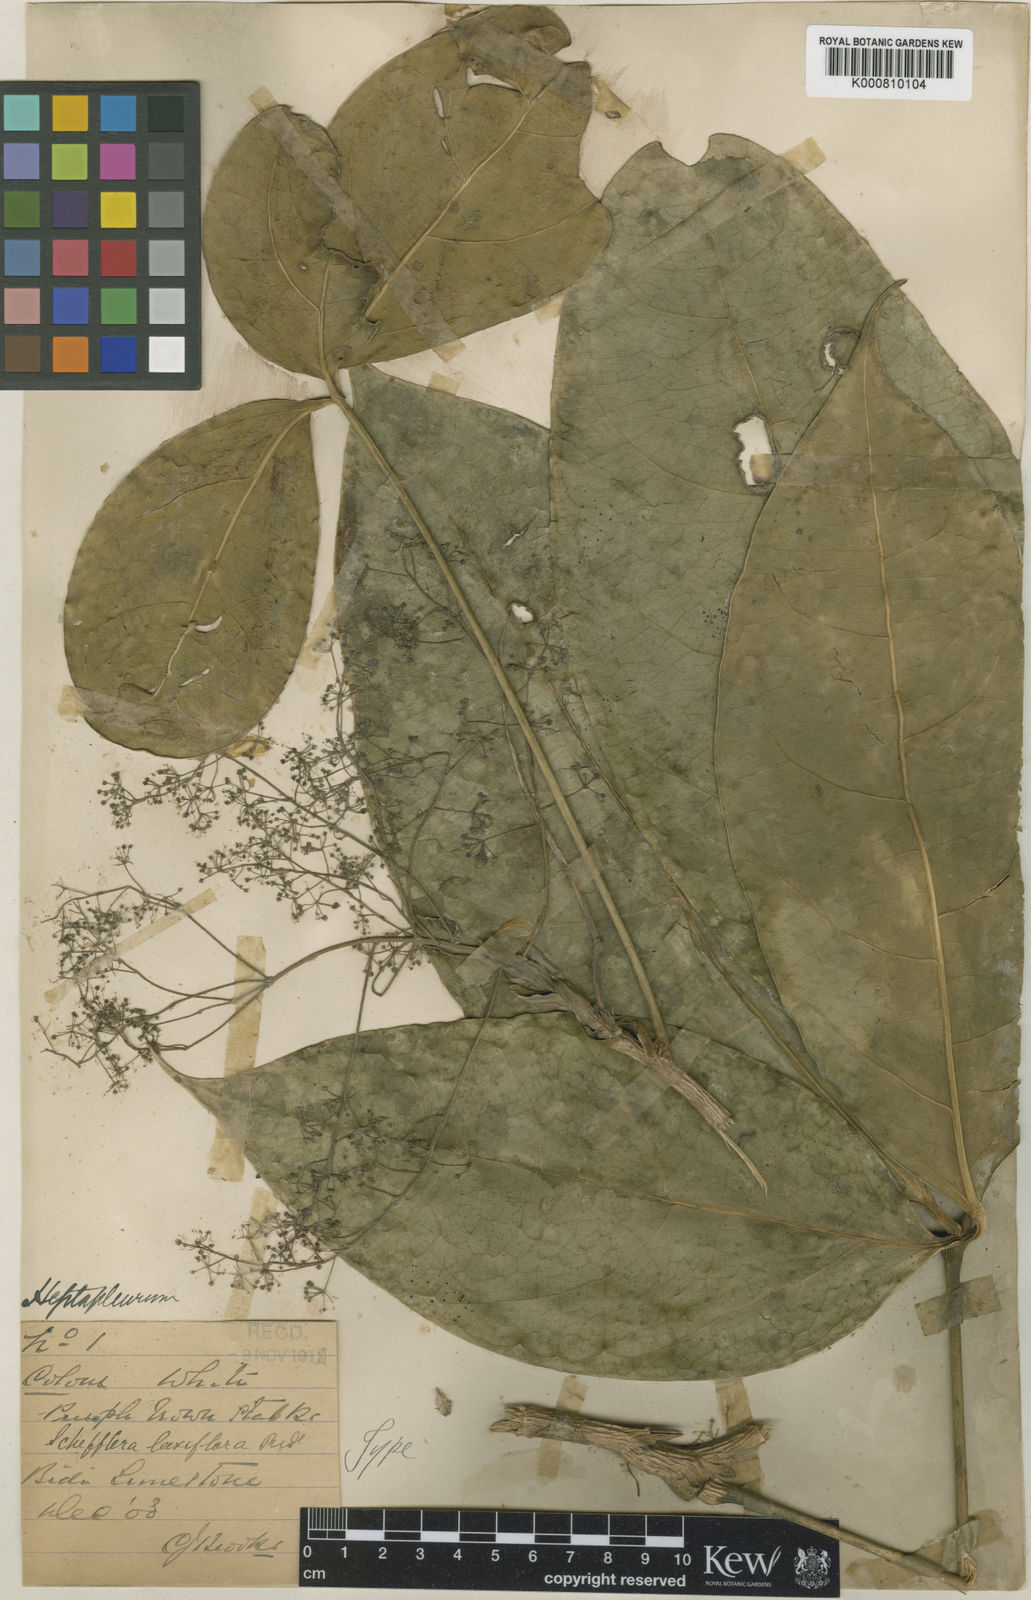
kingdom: Plantae
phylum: Tracheophyta
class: Magnoliopsida
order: Apiales
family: Araliaceae
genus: Heptapleurum
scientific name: Heptapleurum laxiflorum
